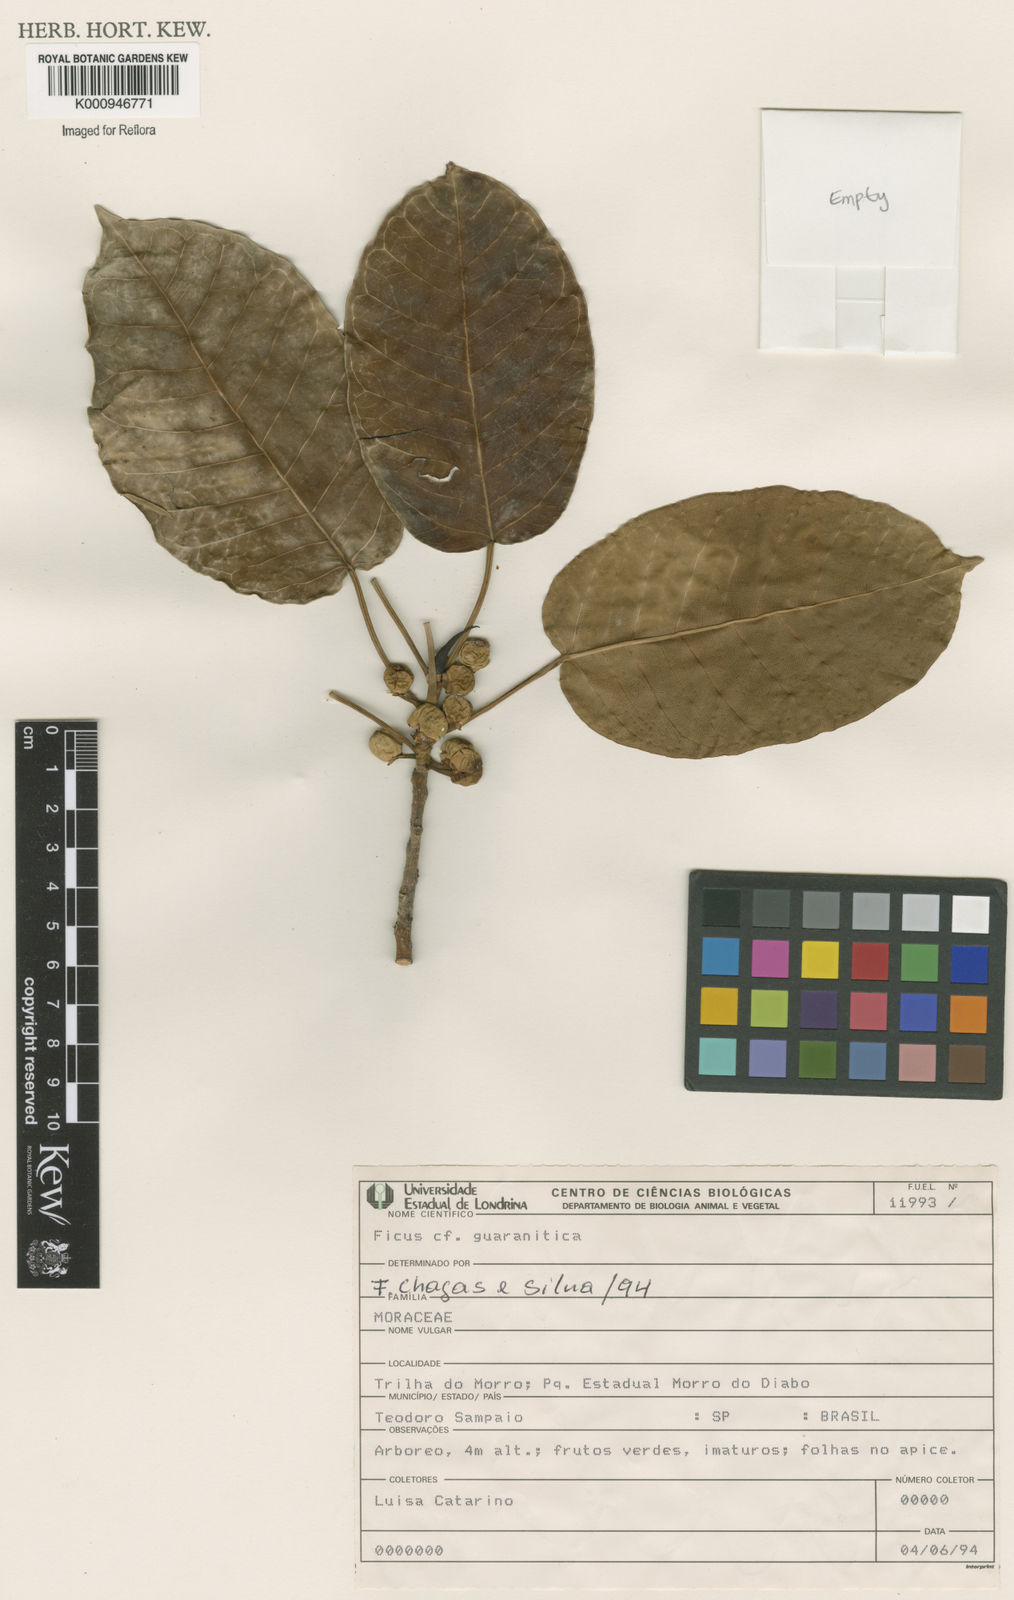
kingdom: Plantae
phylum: Tracheophyta
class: Magnoliopsida
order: Rosales
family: Moraceae
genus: Ficus
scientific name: Ficus guaranitica
